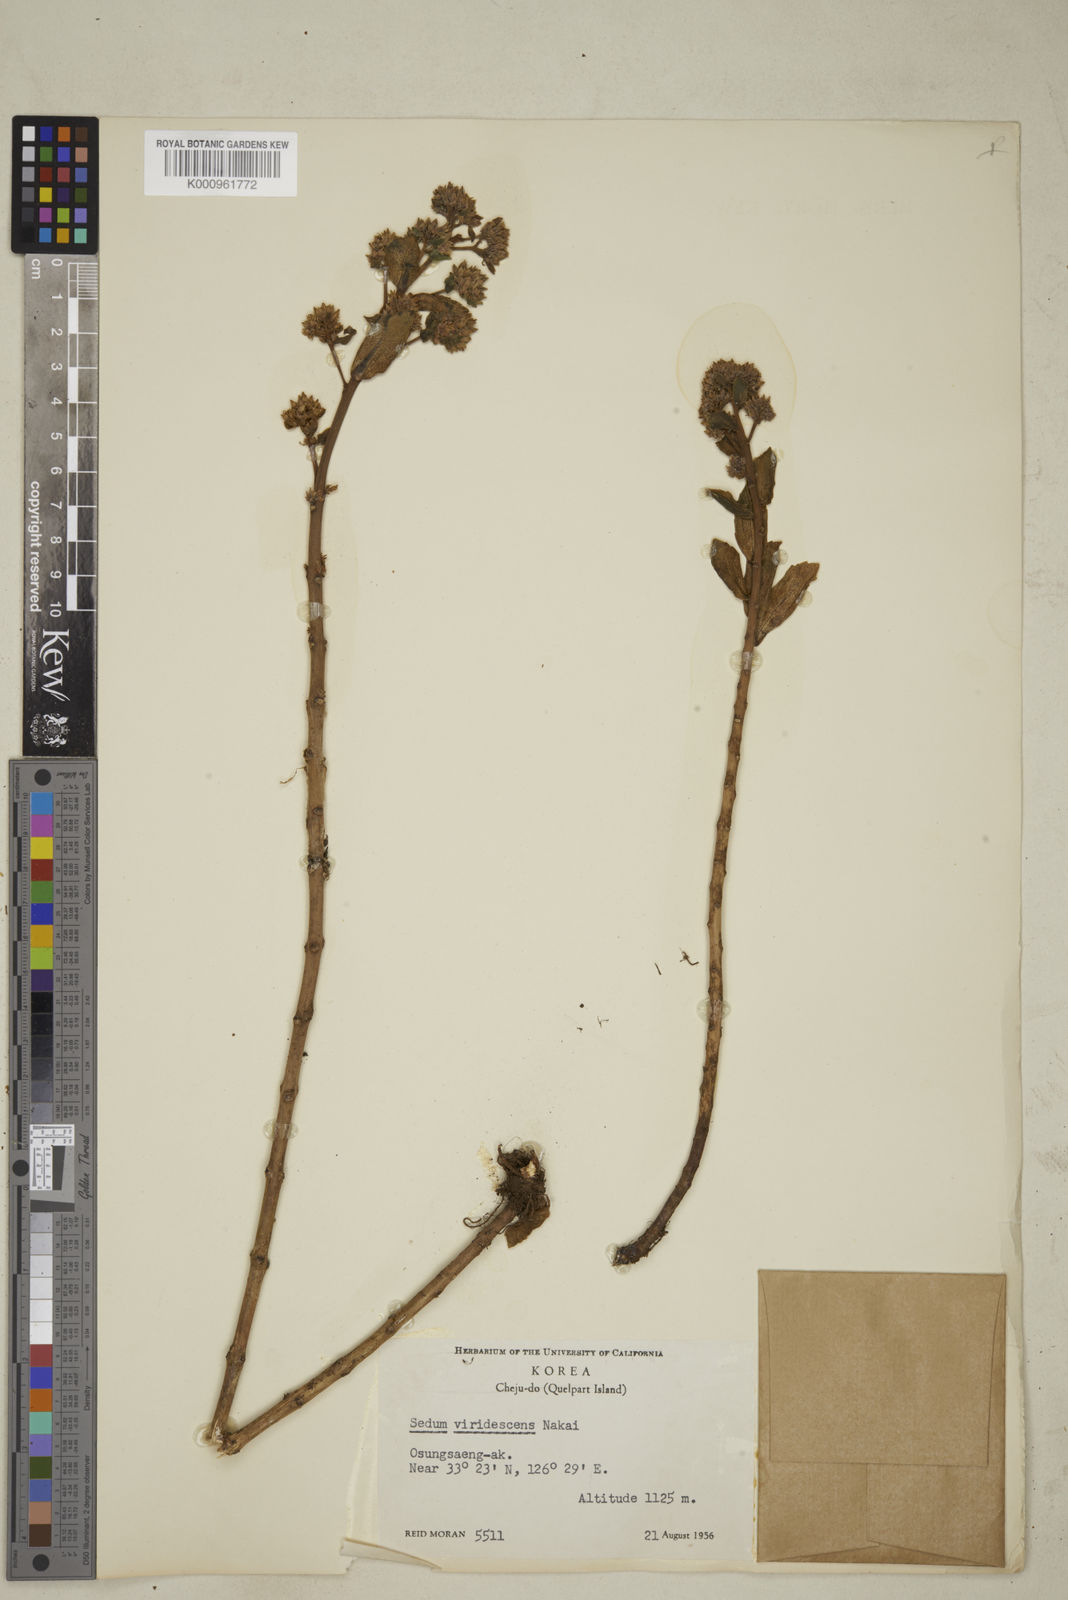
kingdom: Plantae
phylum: Tracheophyta
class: Magnoliopsida
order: Saxifragales
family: Crassulaceae
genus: Hylotelephium
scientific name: Hylotelephium verticillatum
